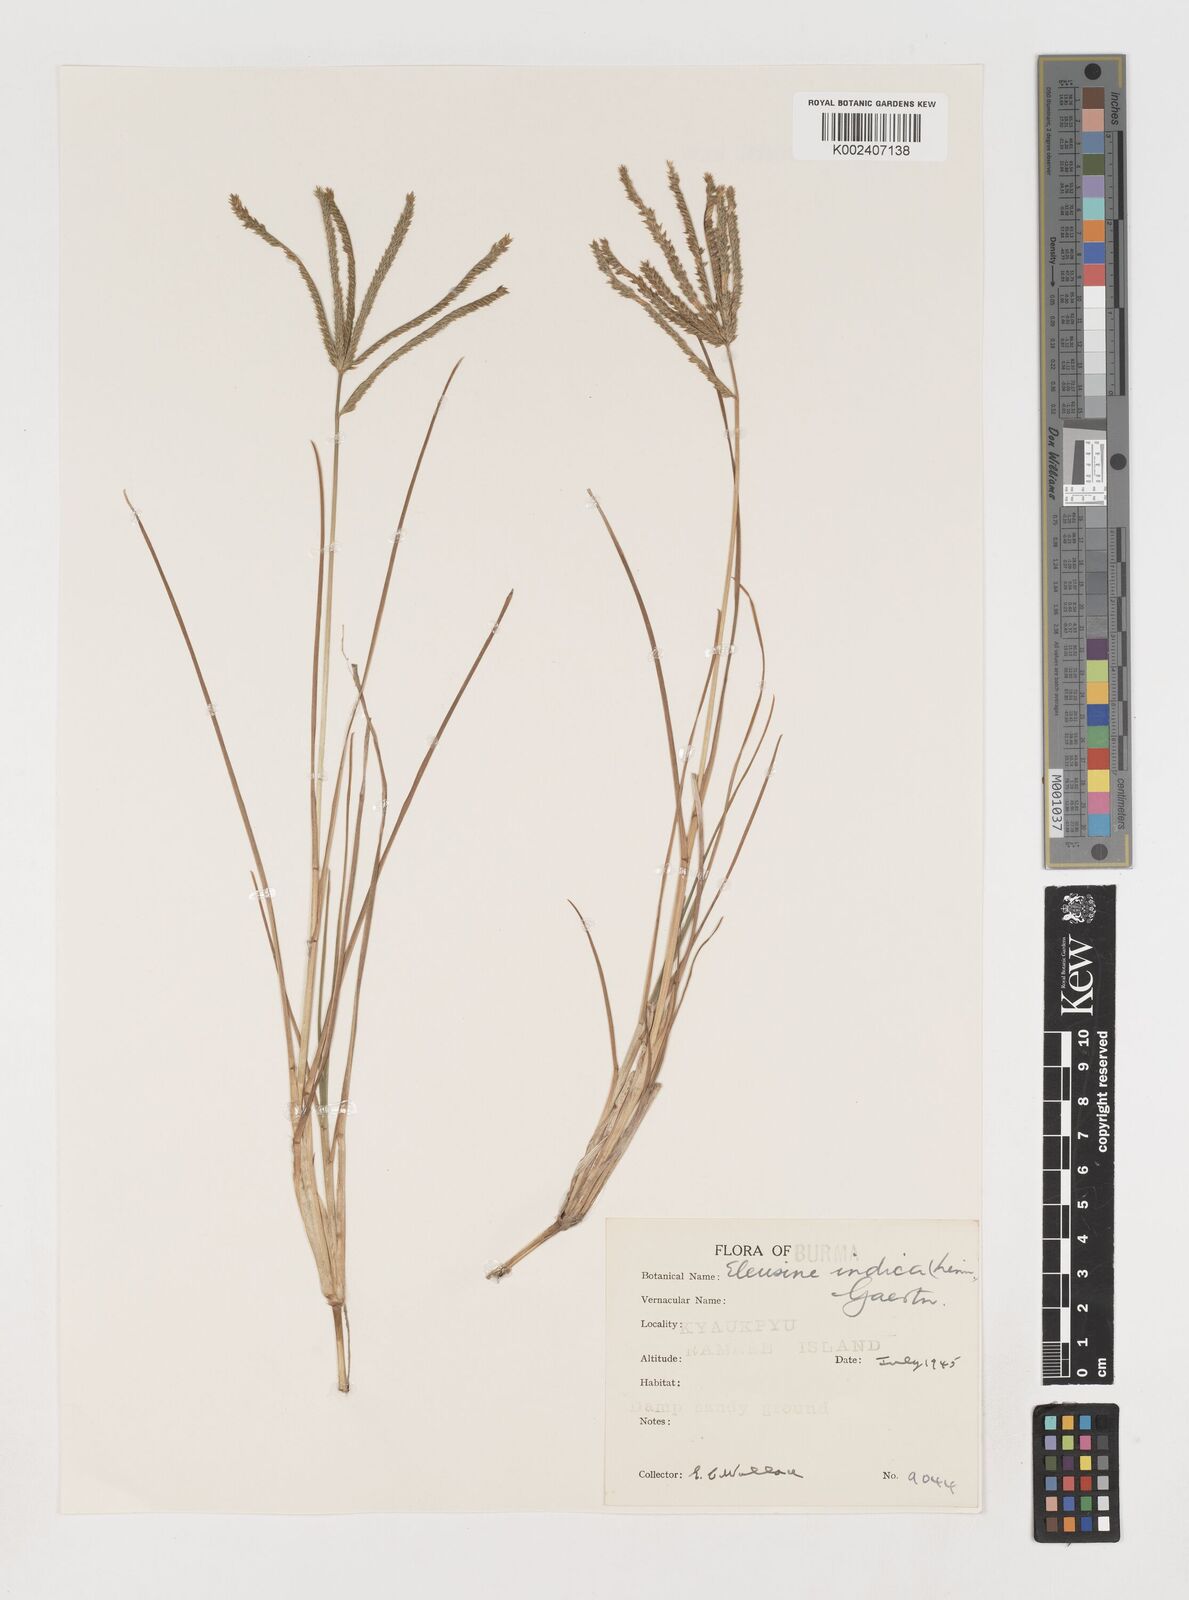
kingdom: Plantae
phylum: Tracheophyta
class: Liliopsida
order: Poales
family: Poaceae
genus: Eleusine
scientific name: Eleusine indica
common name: Yard-grass
